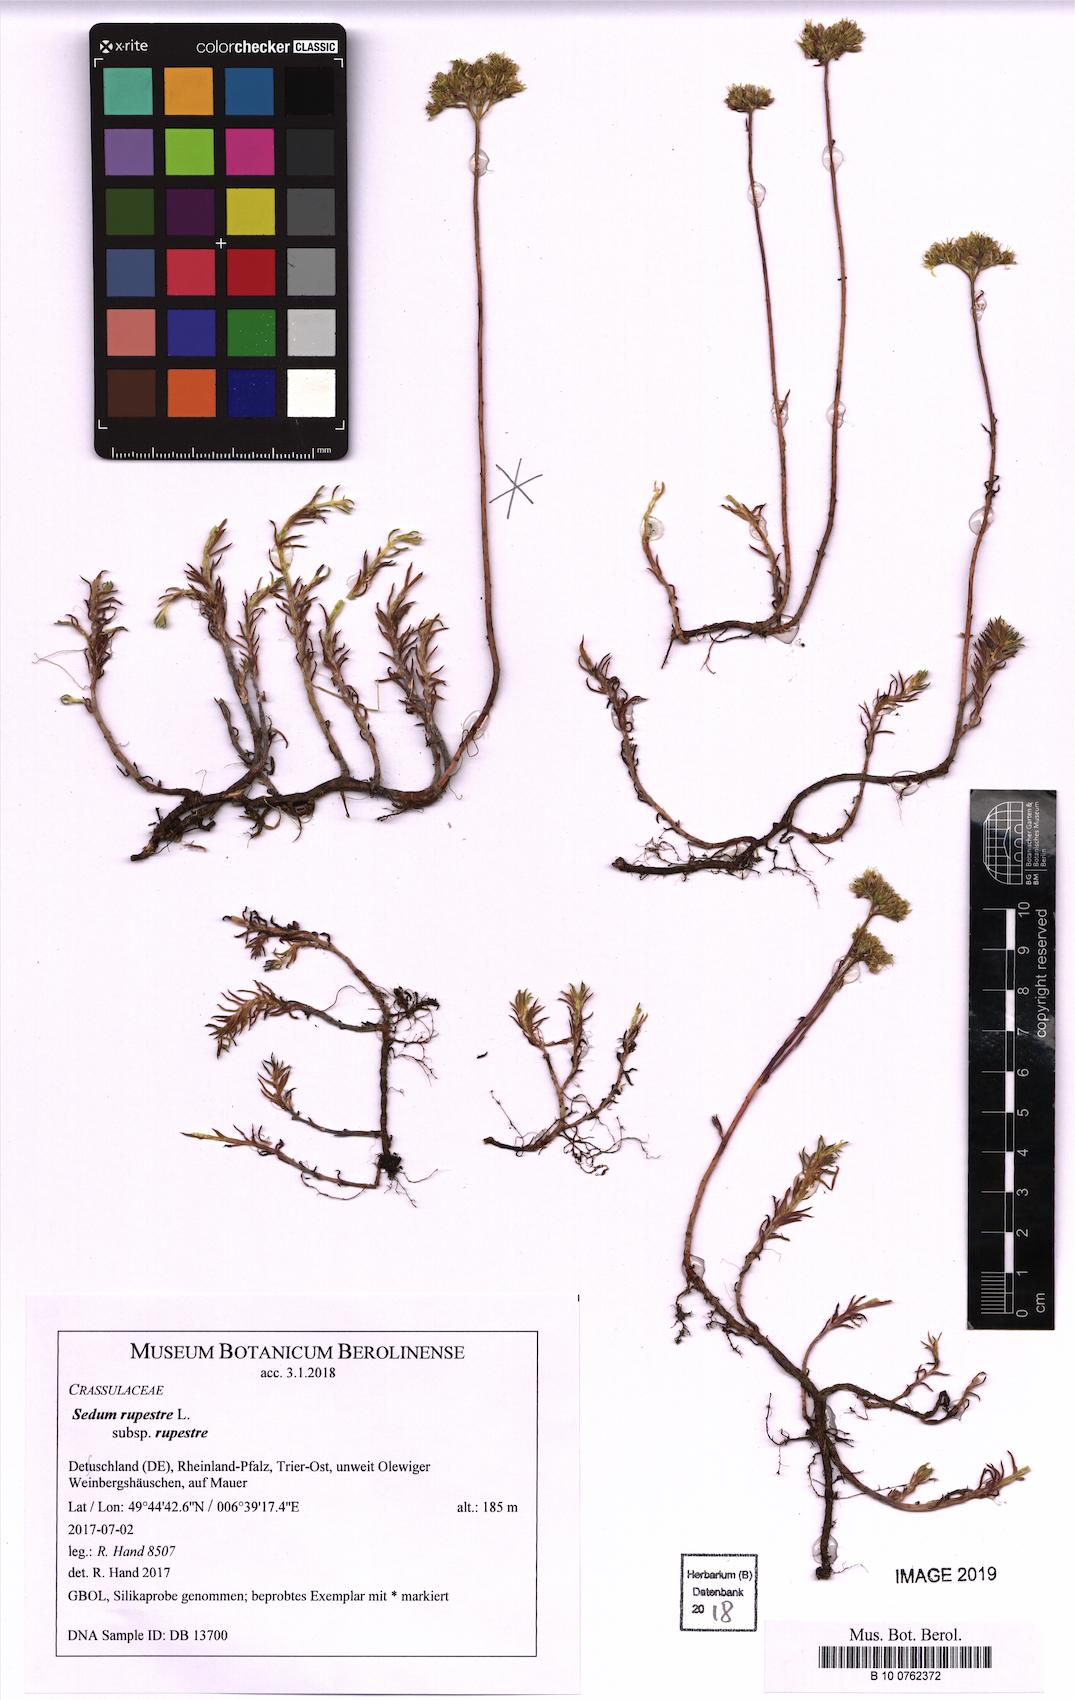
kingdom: Plantae
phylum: Tracheophyta
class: Magnoliopsida
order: Saxifragales
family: Crassulaceae
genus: Petrosedum
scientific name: Petrosedum rupestre
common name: Jenny's stonecrop
